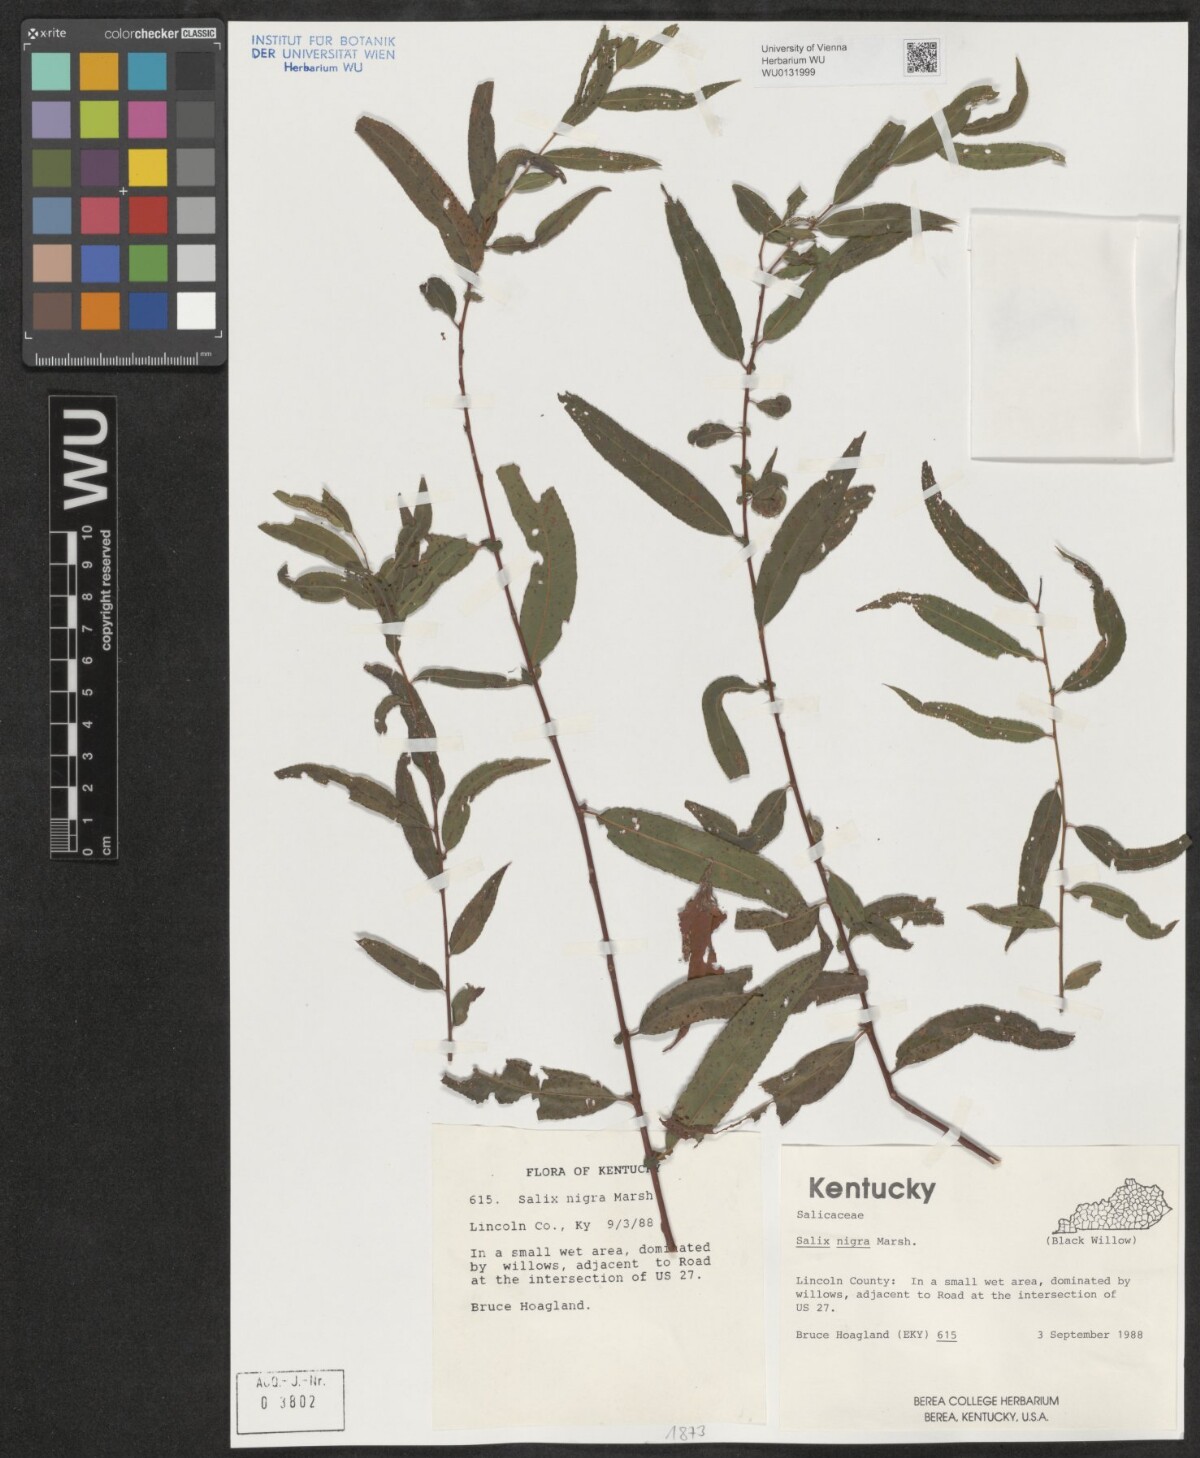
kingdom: Plantae
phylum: Tracheophyta
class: Magnoliopsida
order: Malpighiales
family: Salicaceae
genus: Salix
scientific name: Salix nigra
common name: Black willow
